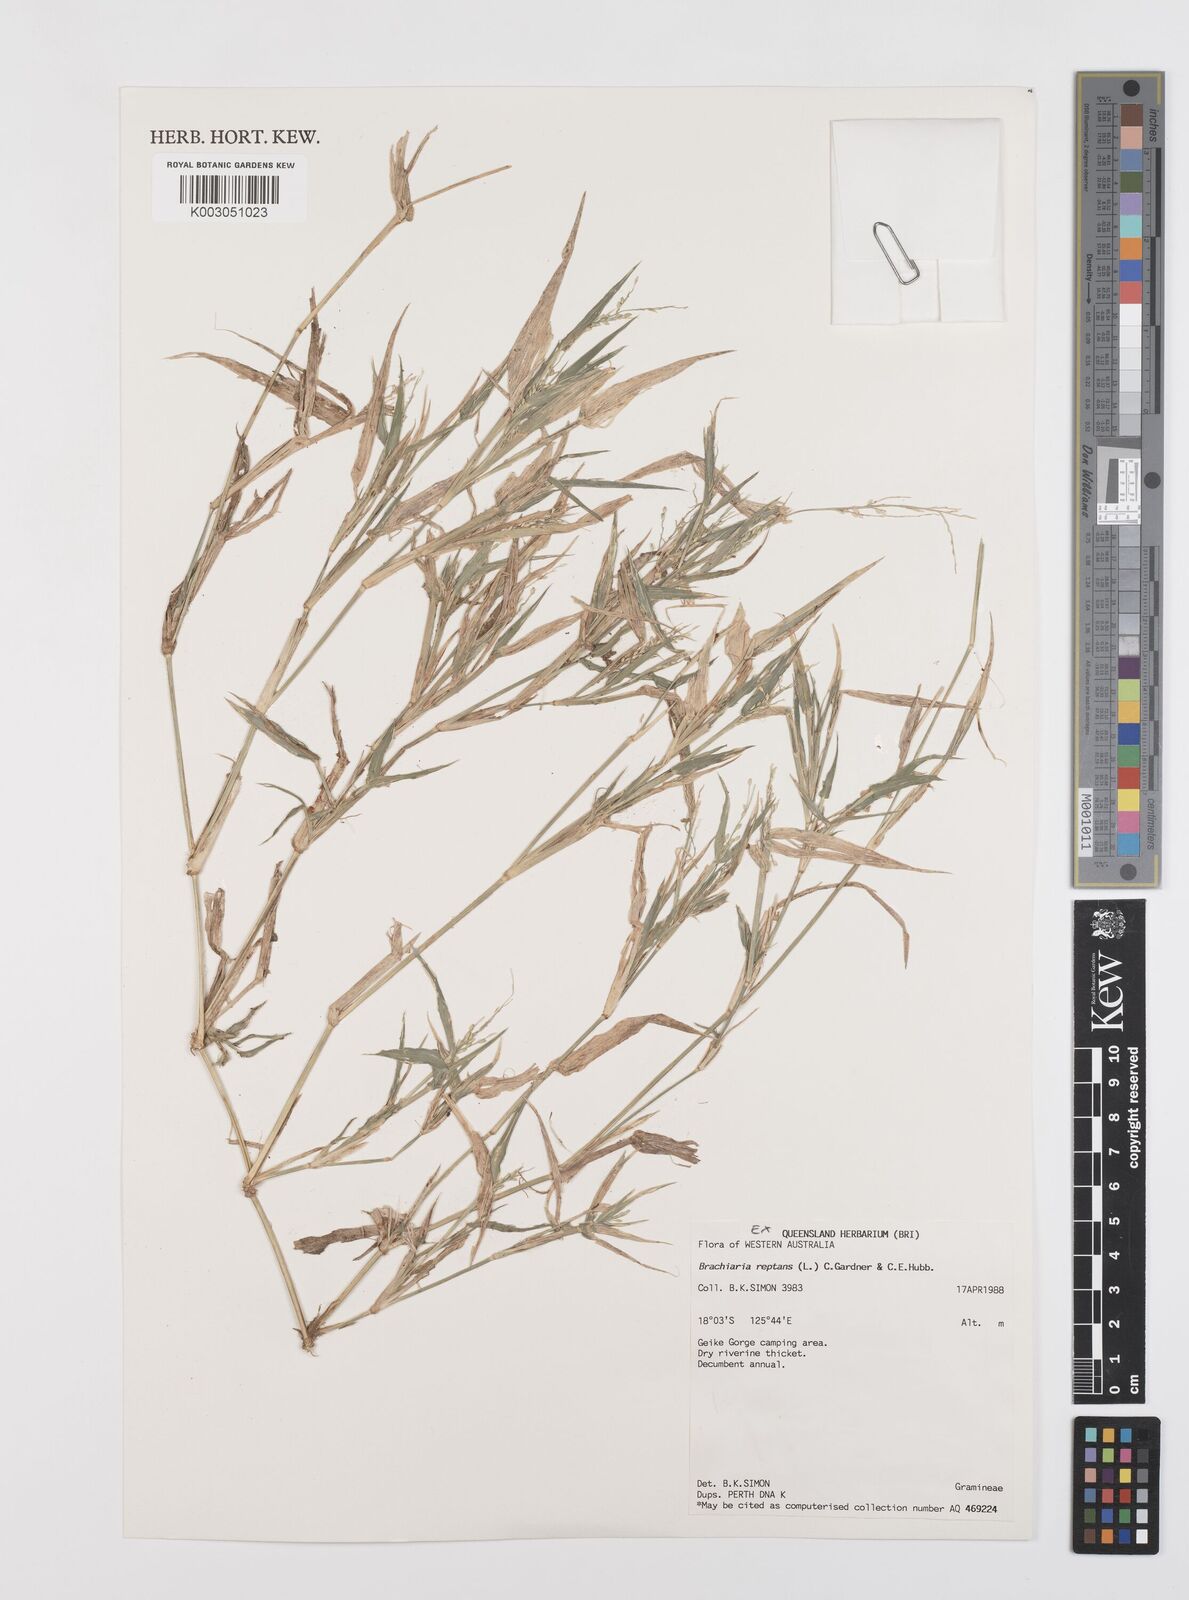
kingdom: Plantae
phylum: Tracheophyta
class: Liliopsida
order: Poales
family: Poaceae
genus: Urochloa
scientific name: Urochloa reptans
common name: Sprawling signalgrass
